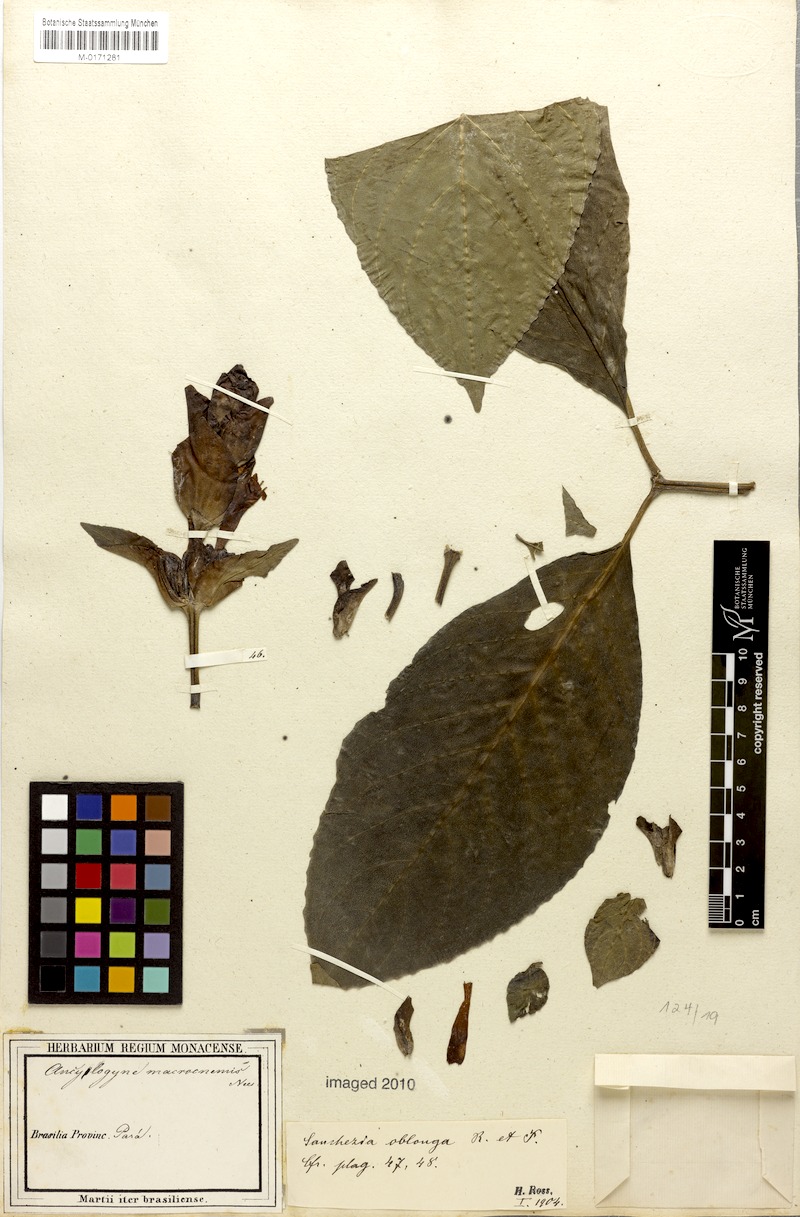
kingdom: Plantae
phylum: Tracheophyta
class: Magnoliopsida
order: Lamiales
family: Acanthaceae
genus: Sanchezia
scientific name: Sanchezia macrocnemis
